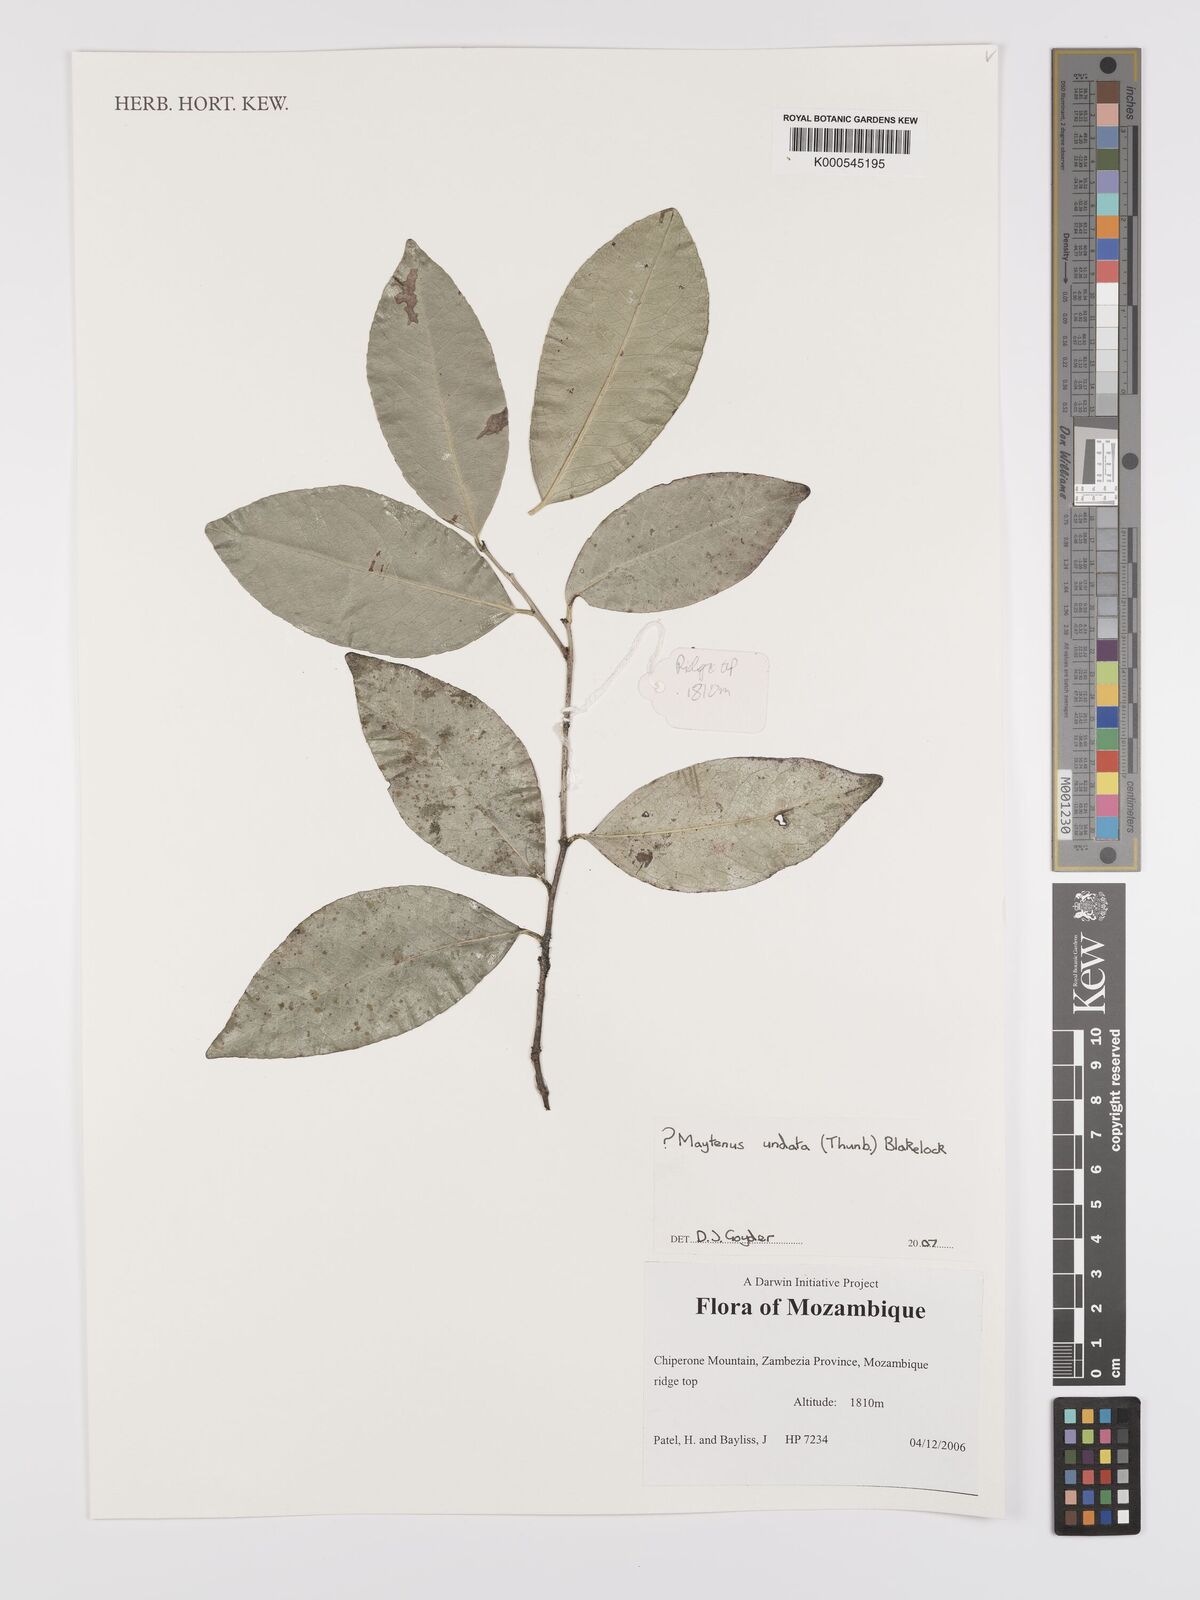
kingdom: Plantae
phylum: Tracheophyta
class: Magnoliopsida
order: Celastrales
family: Celastraceae
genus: Gymnosporia
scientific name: Gymnosporia undata
